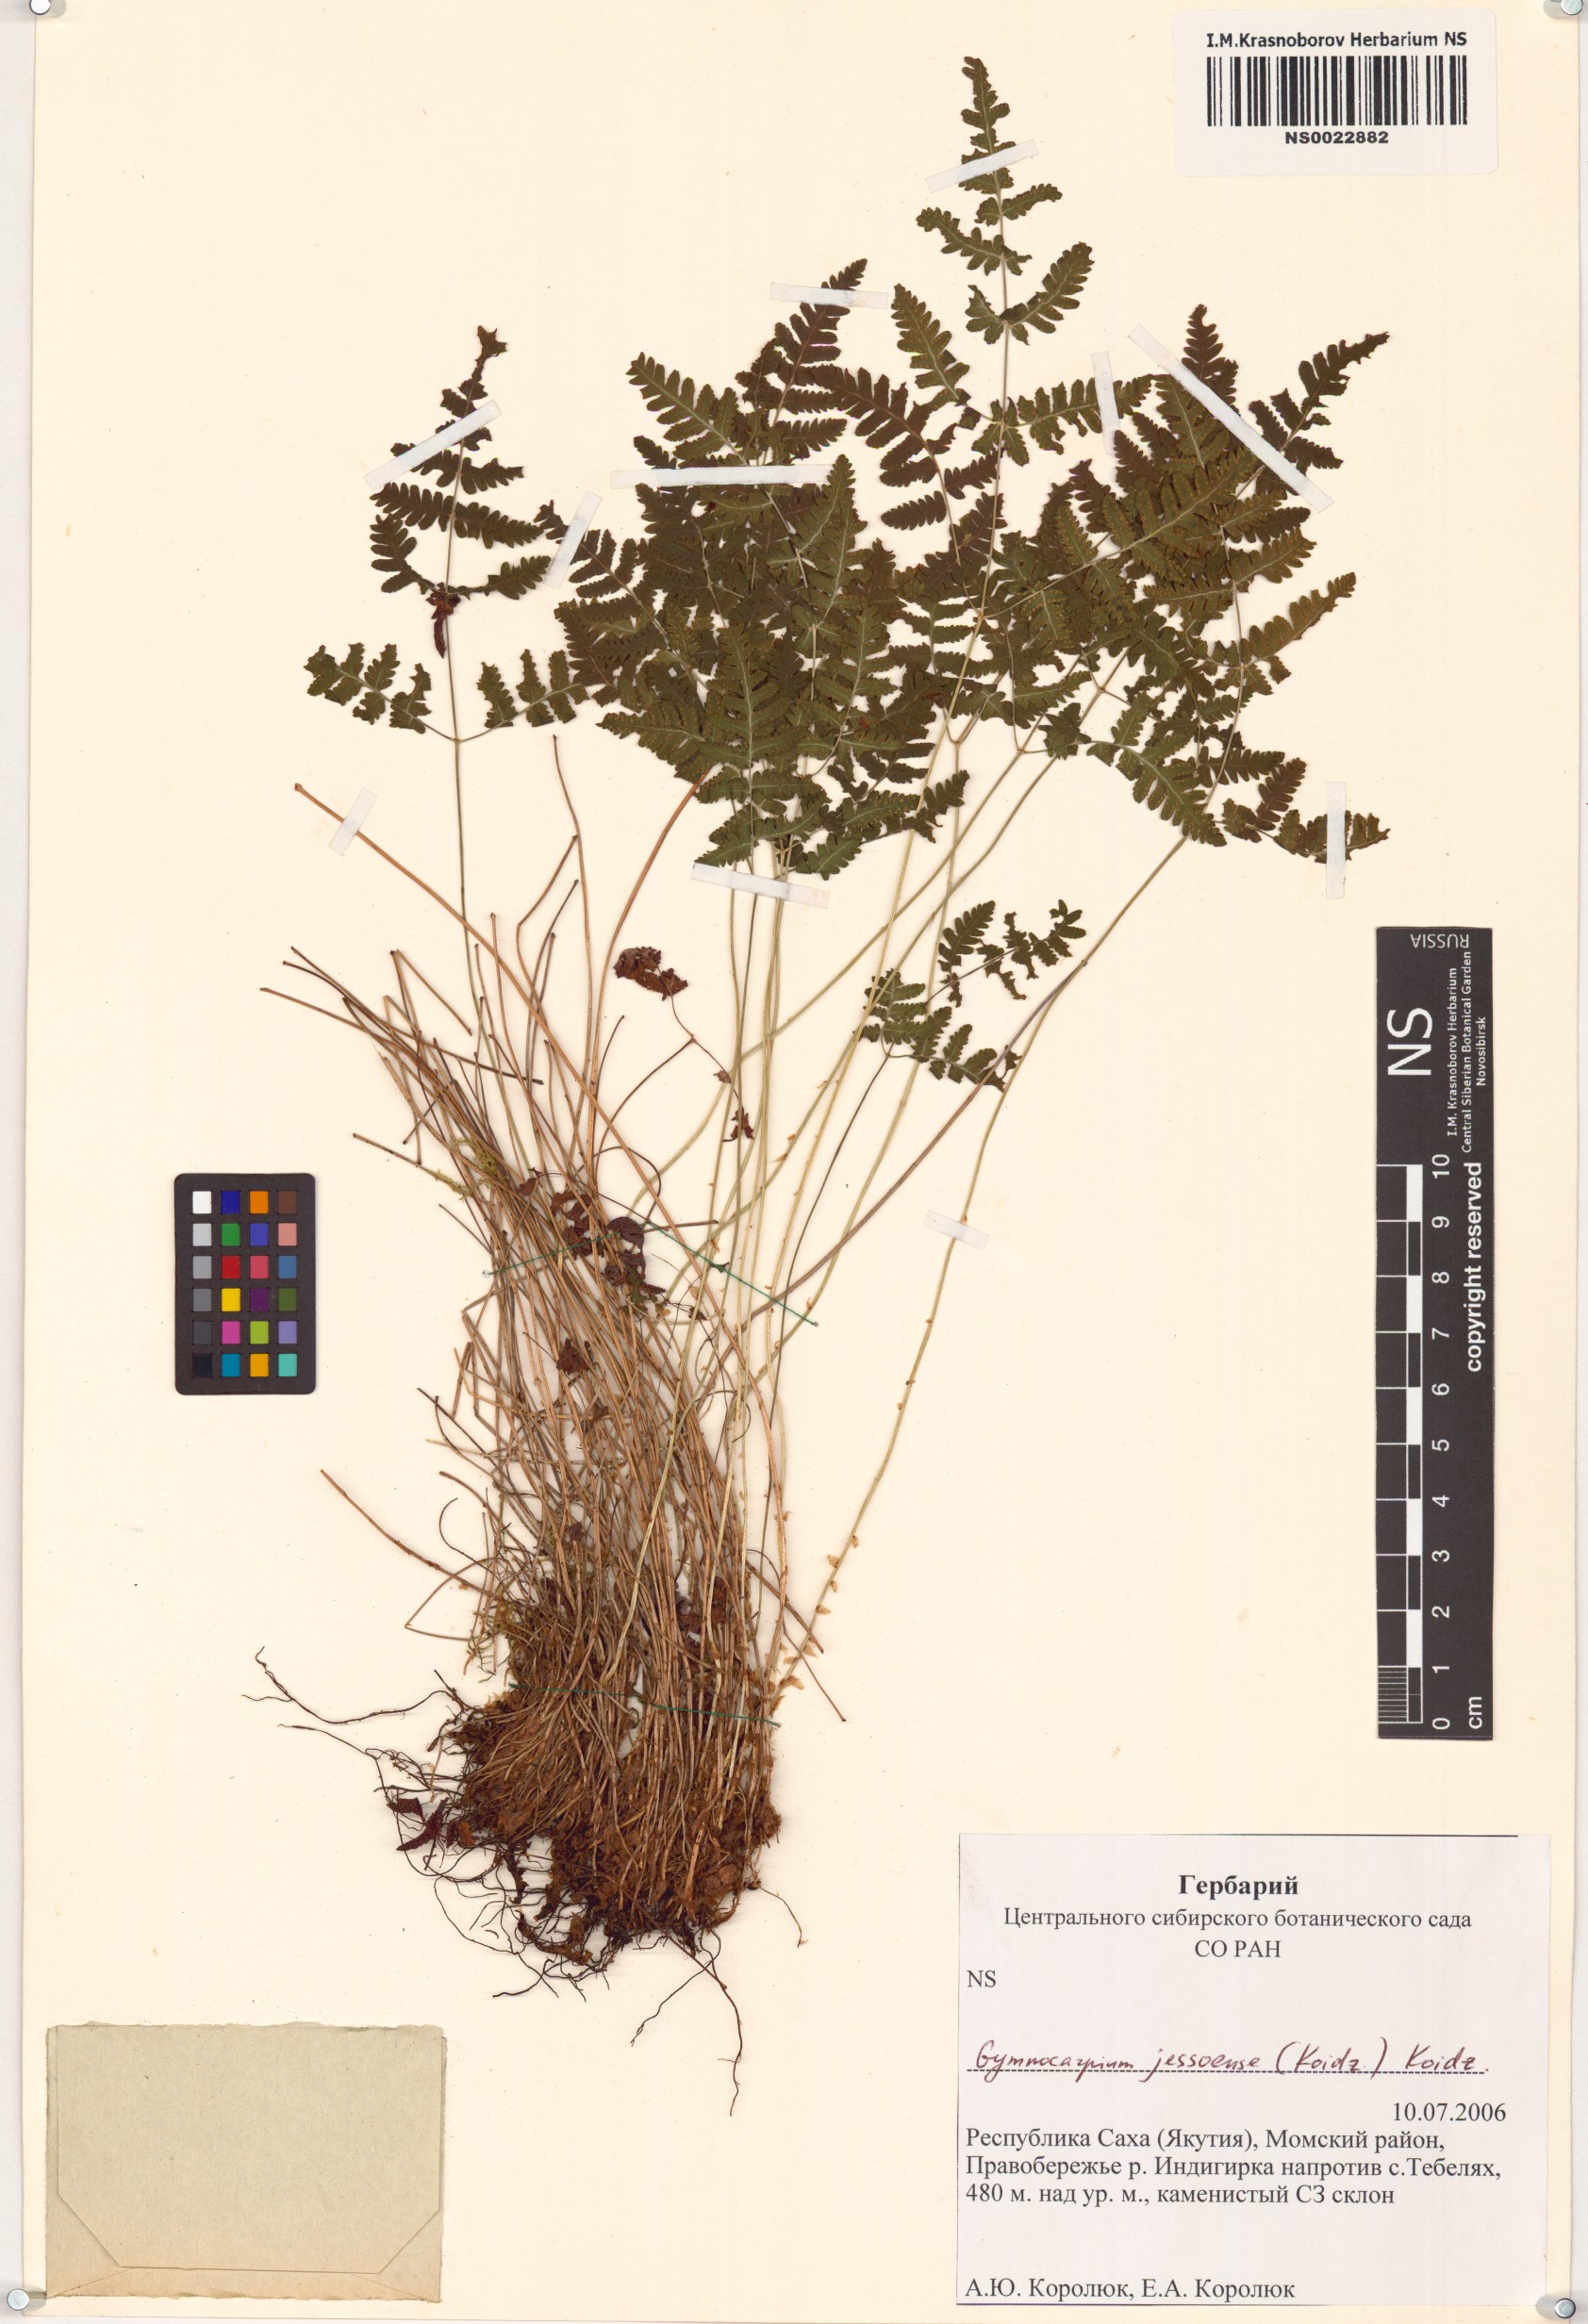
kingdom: Plantae
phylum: Tracheophyta
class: Polypodiopsida
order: Polypodiales
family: Cystopteridaceae
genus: Gymnocarpium
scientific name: Gymnocarpium jessoense
